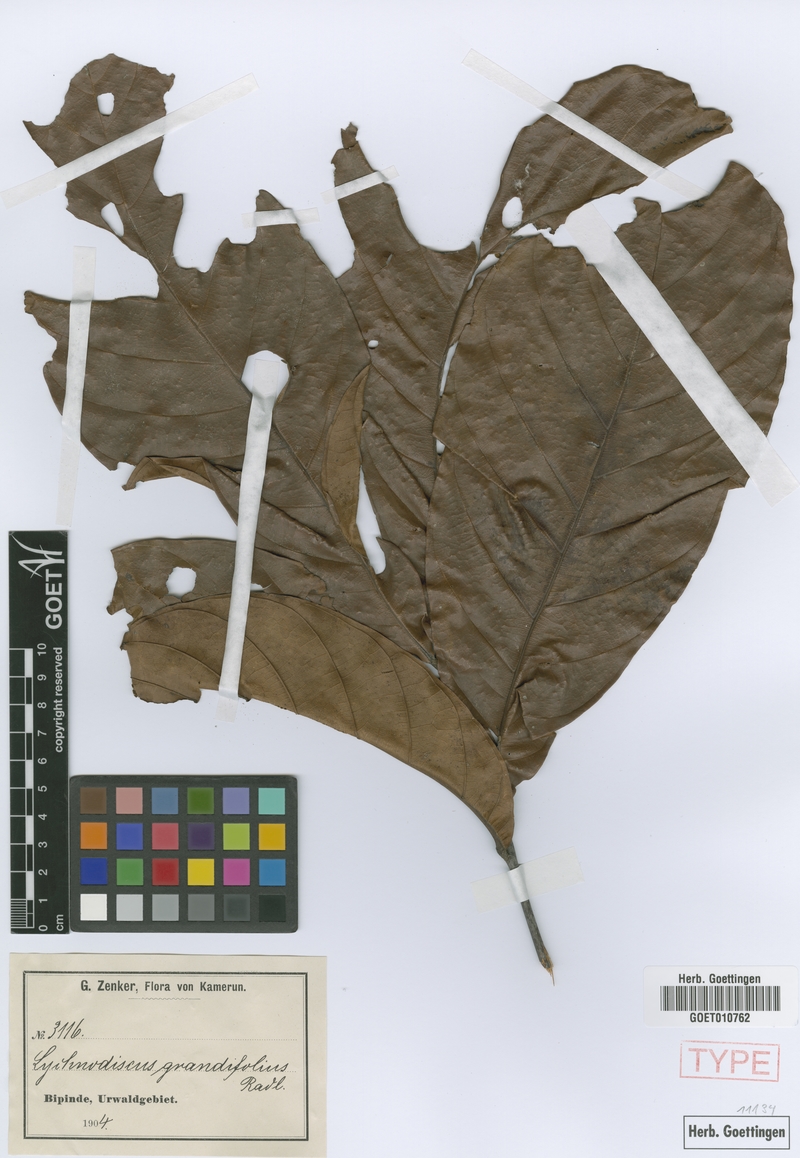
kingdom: Plantae
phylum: Tracheophyta
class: Magnoliopsida
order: Sapindales
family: Sapindaceae
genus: Lychnodiscus
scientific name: Lychnodiscus grandifolius
